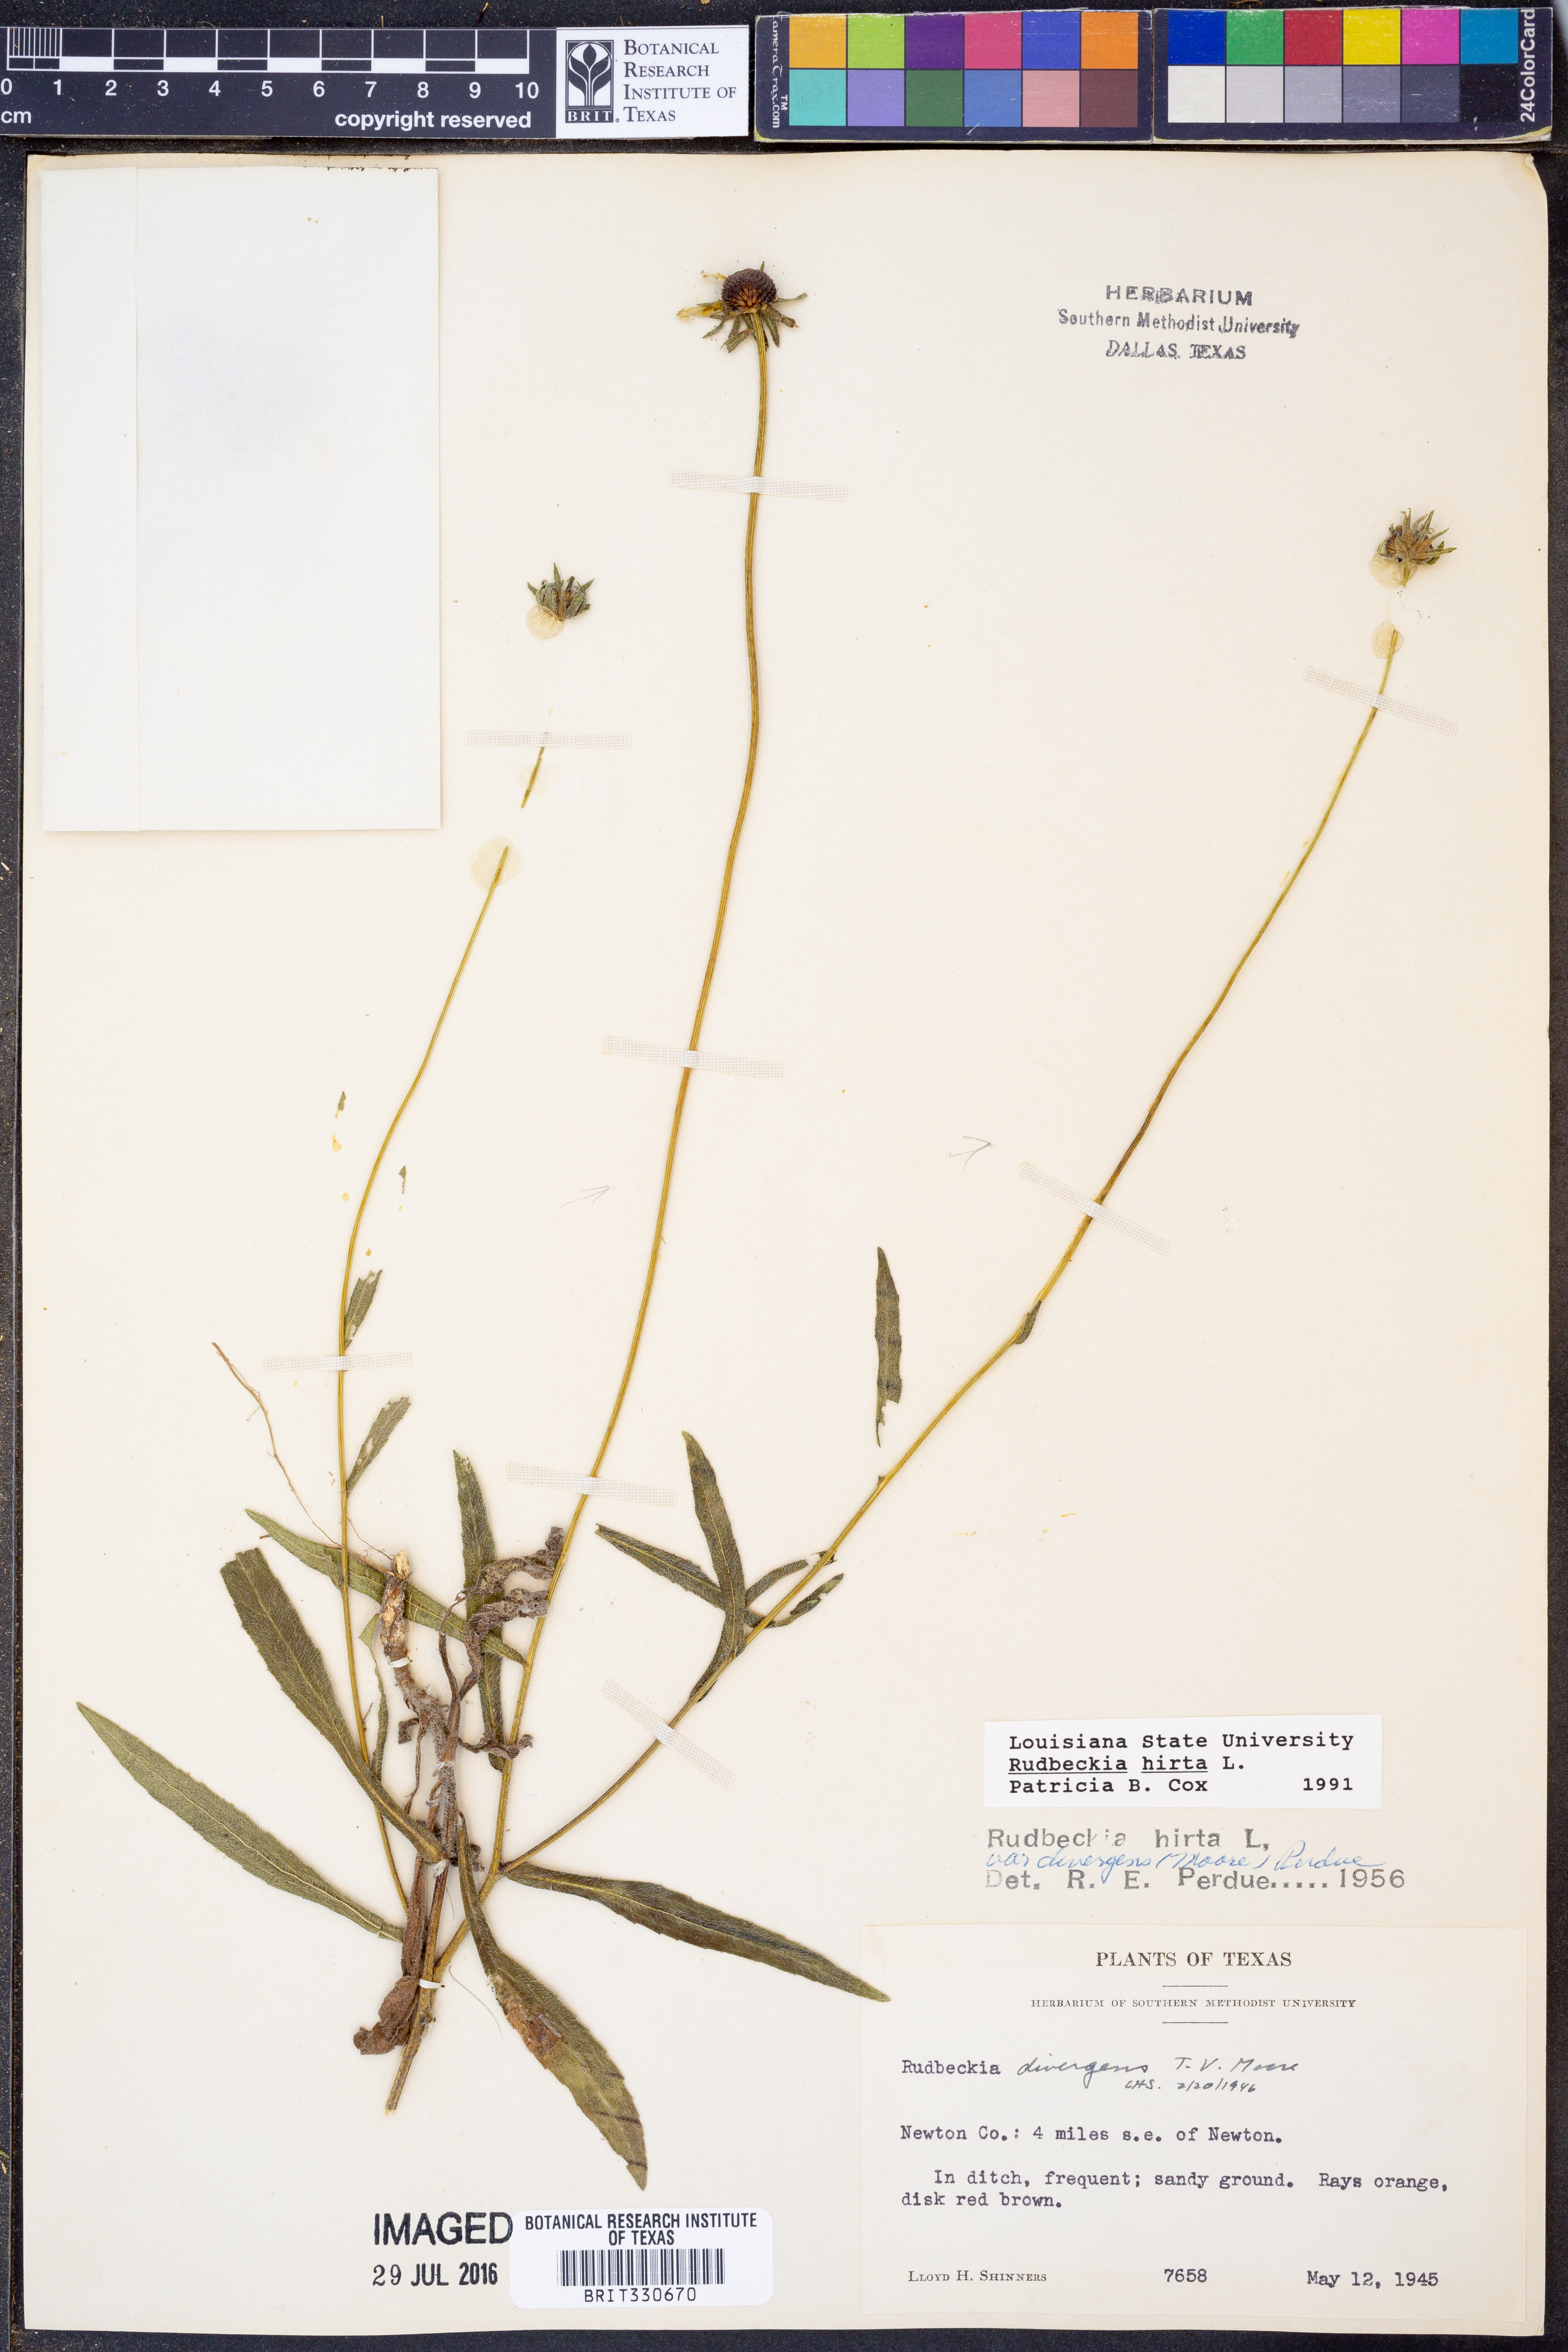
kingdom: Plantae
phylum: Tracheophyta
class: Magnoliopsida
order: Asterales
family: Asteraceae
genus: Rudbeckia
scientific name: Rudbeckia hirta
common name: Black-eyed-susan
